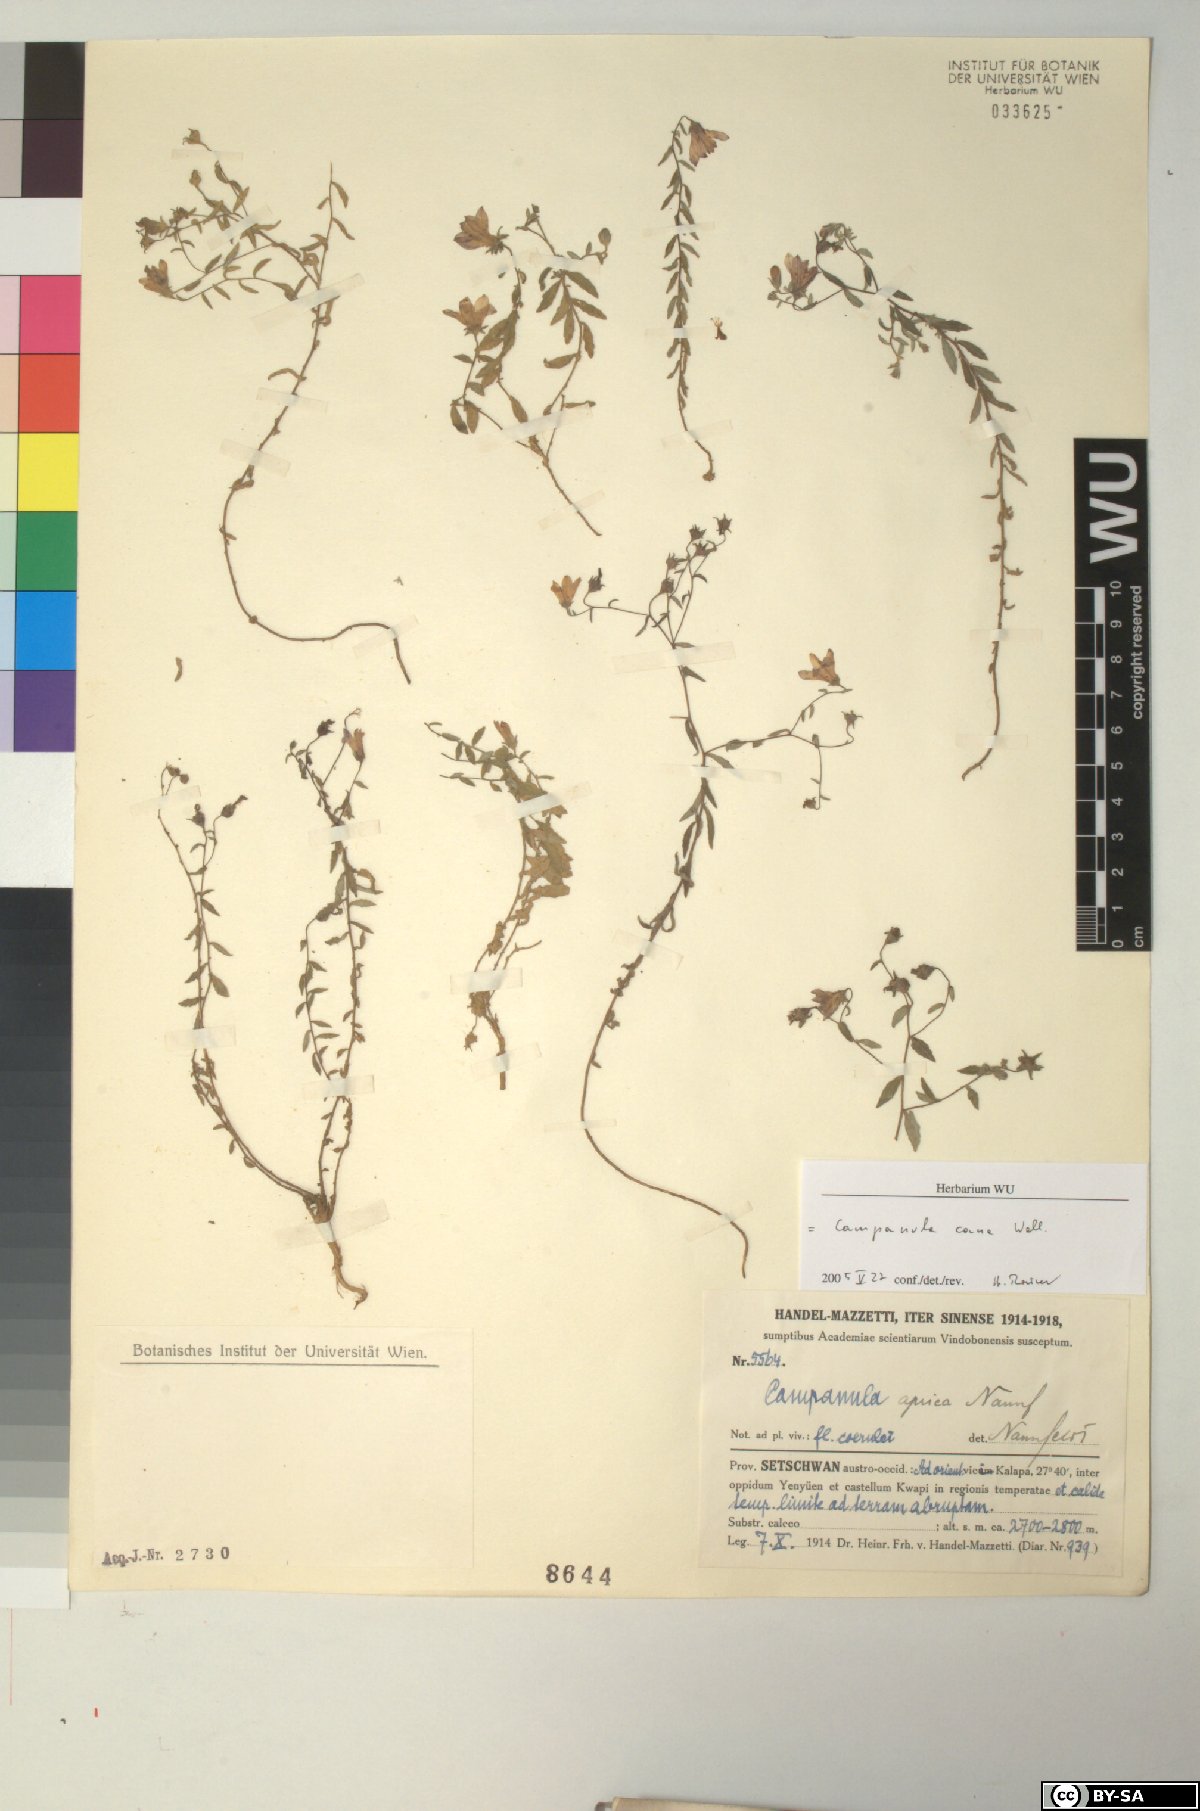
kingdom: Plantae
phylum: Tracheophyta
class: Magnoliopsida
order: Asterales
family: Campanulaceae
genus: Campanula
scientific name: Campanula cana
